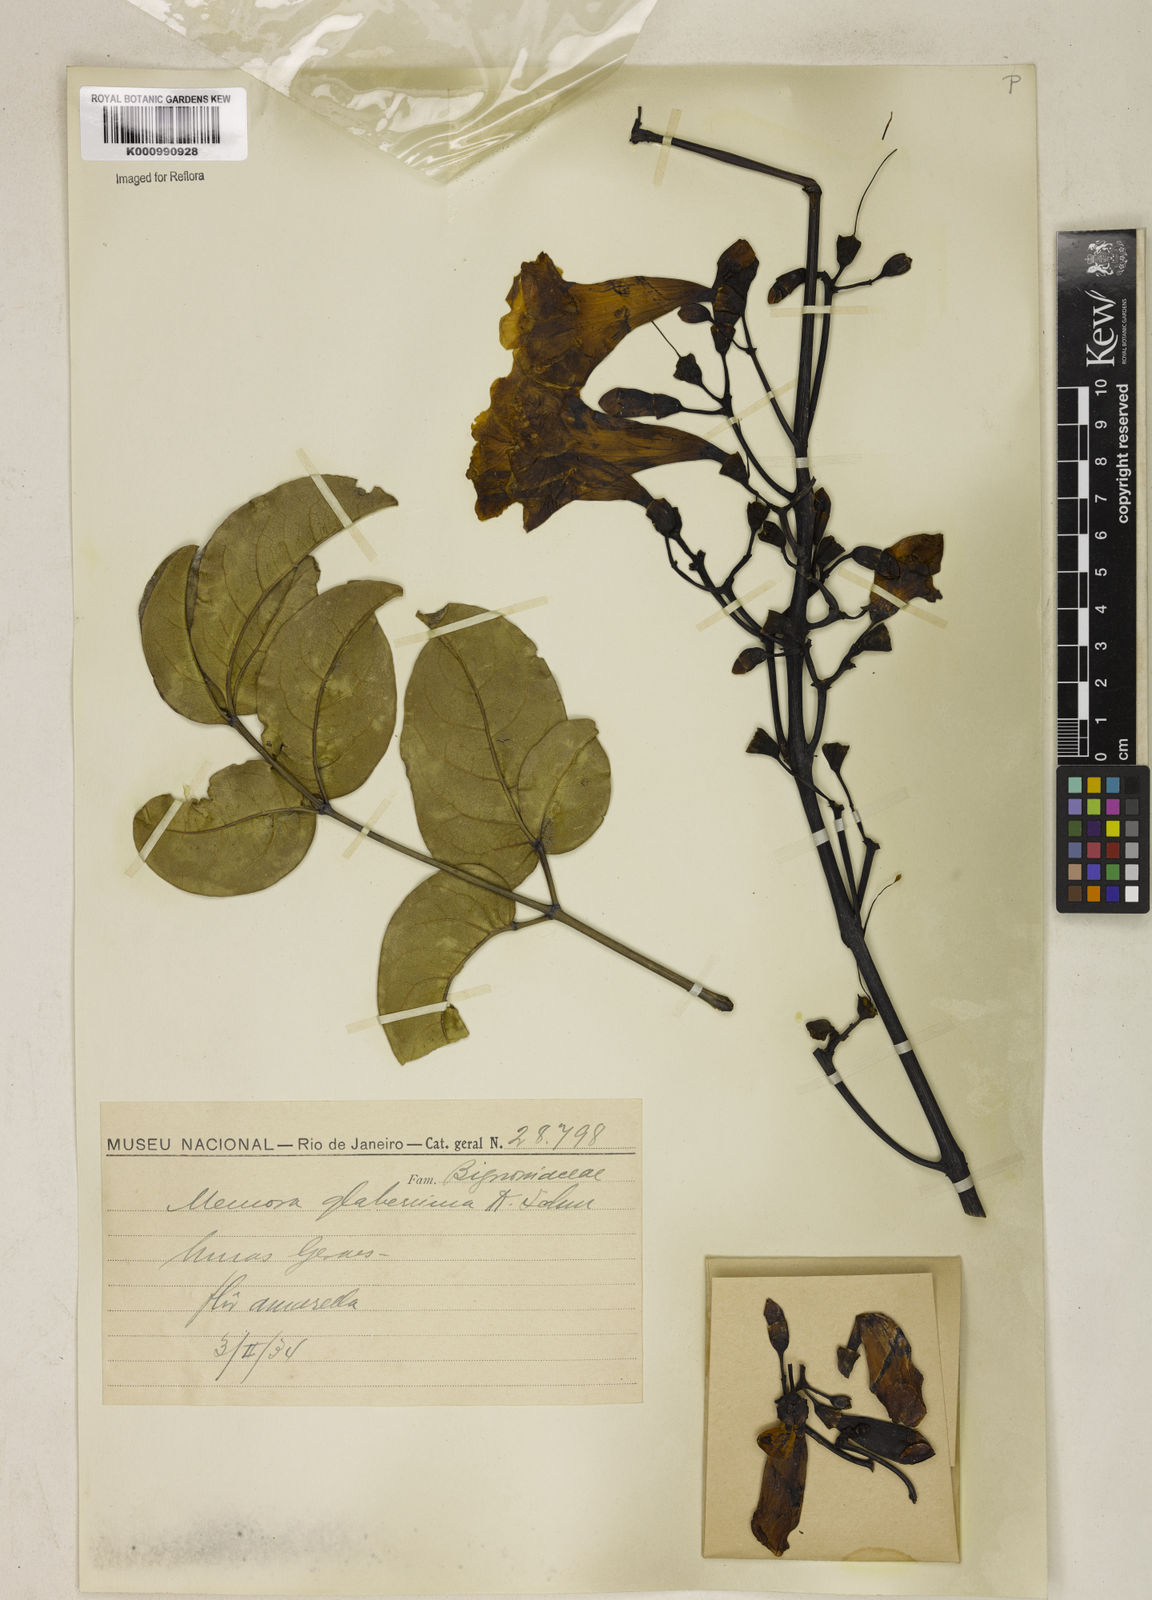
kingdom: Plantae
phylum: Tracheophyta
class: Magnoliopsida
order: Lamiales
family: Bignoniaceae
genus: Adenocalymma
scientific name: Adenocalymma pedunculatum
